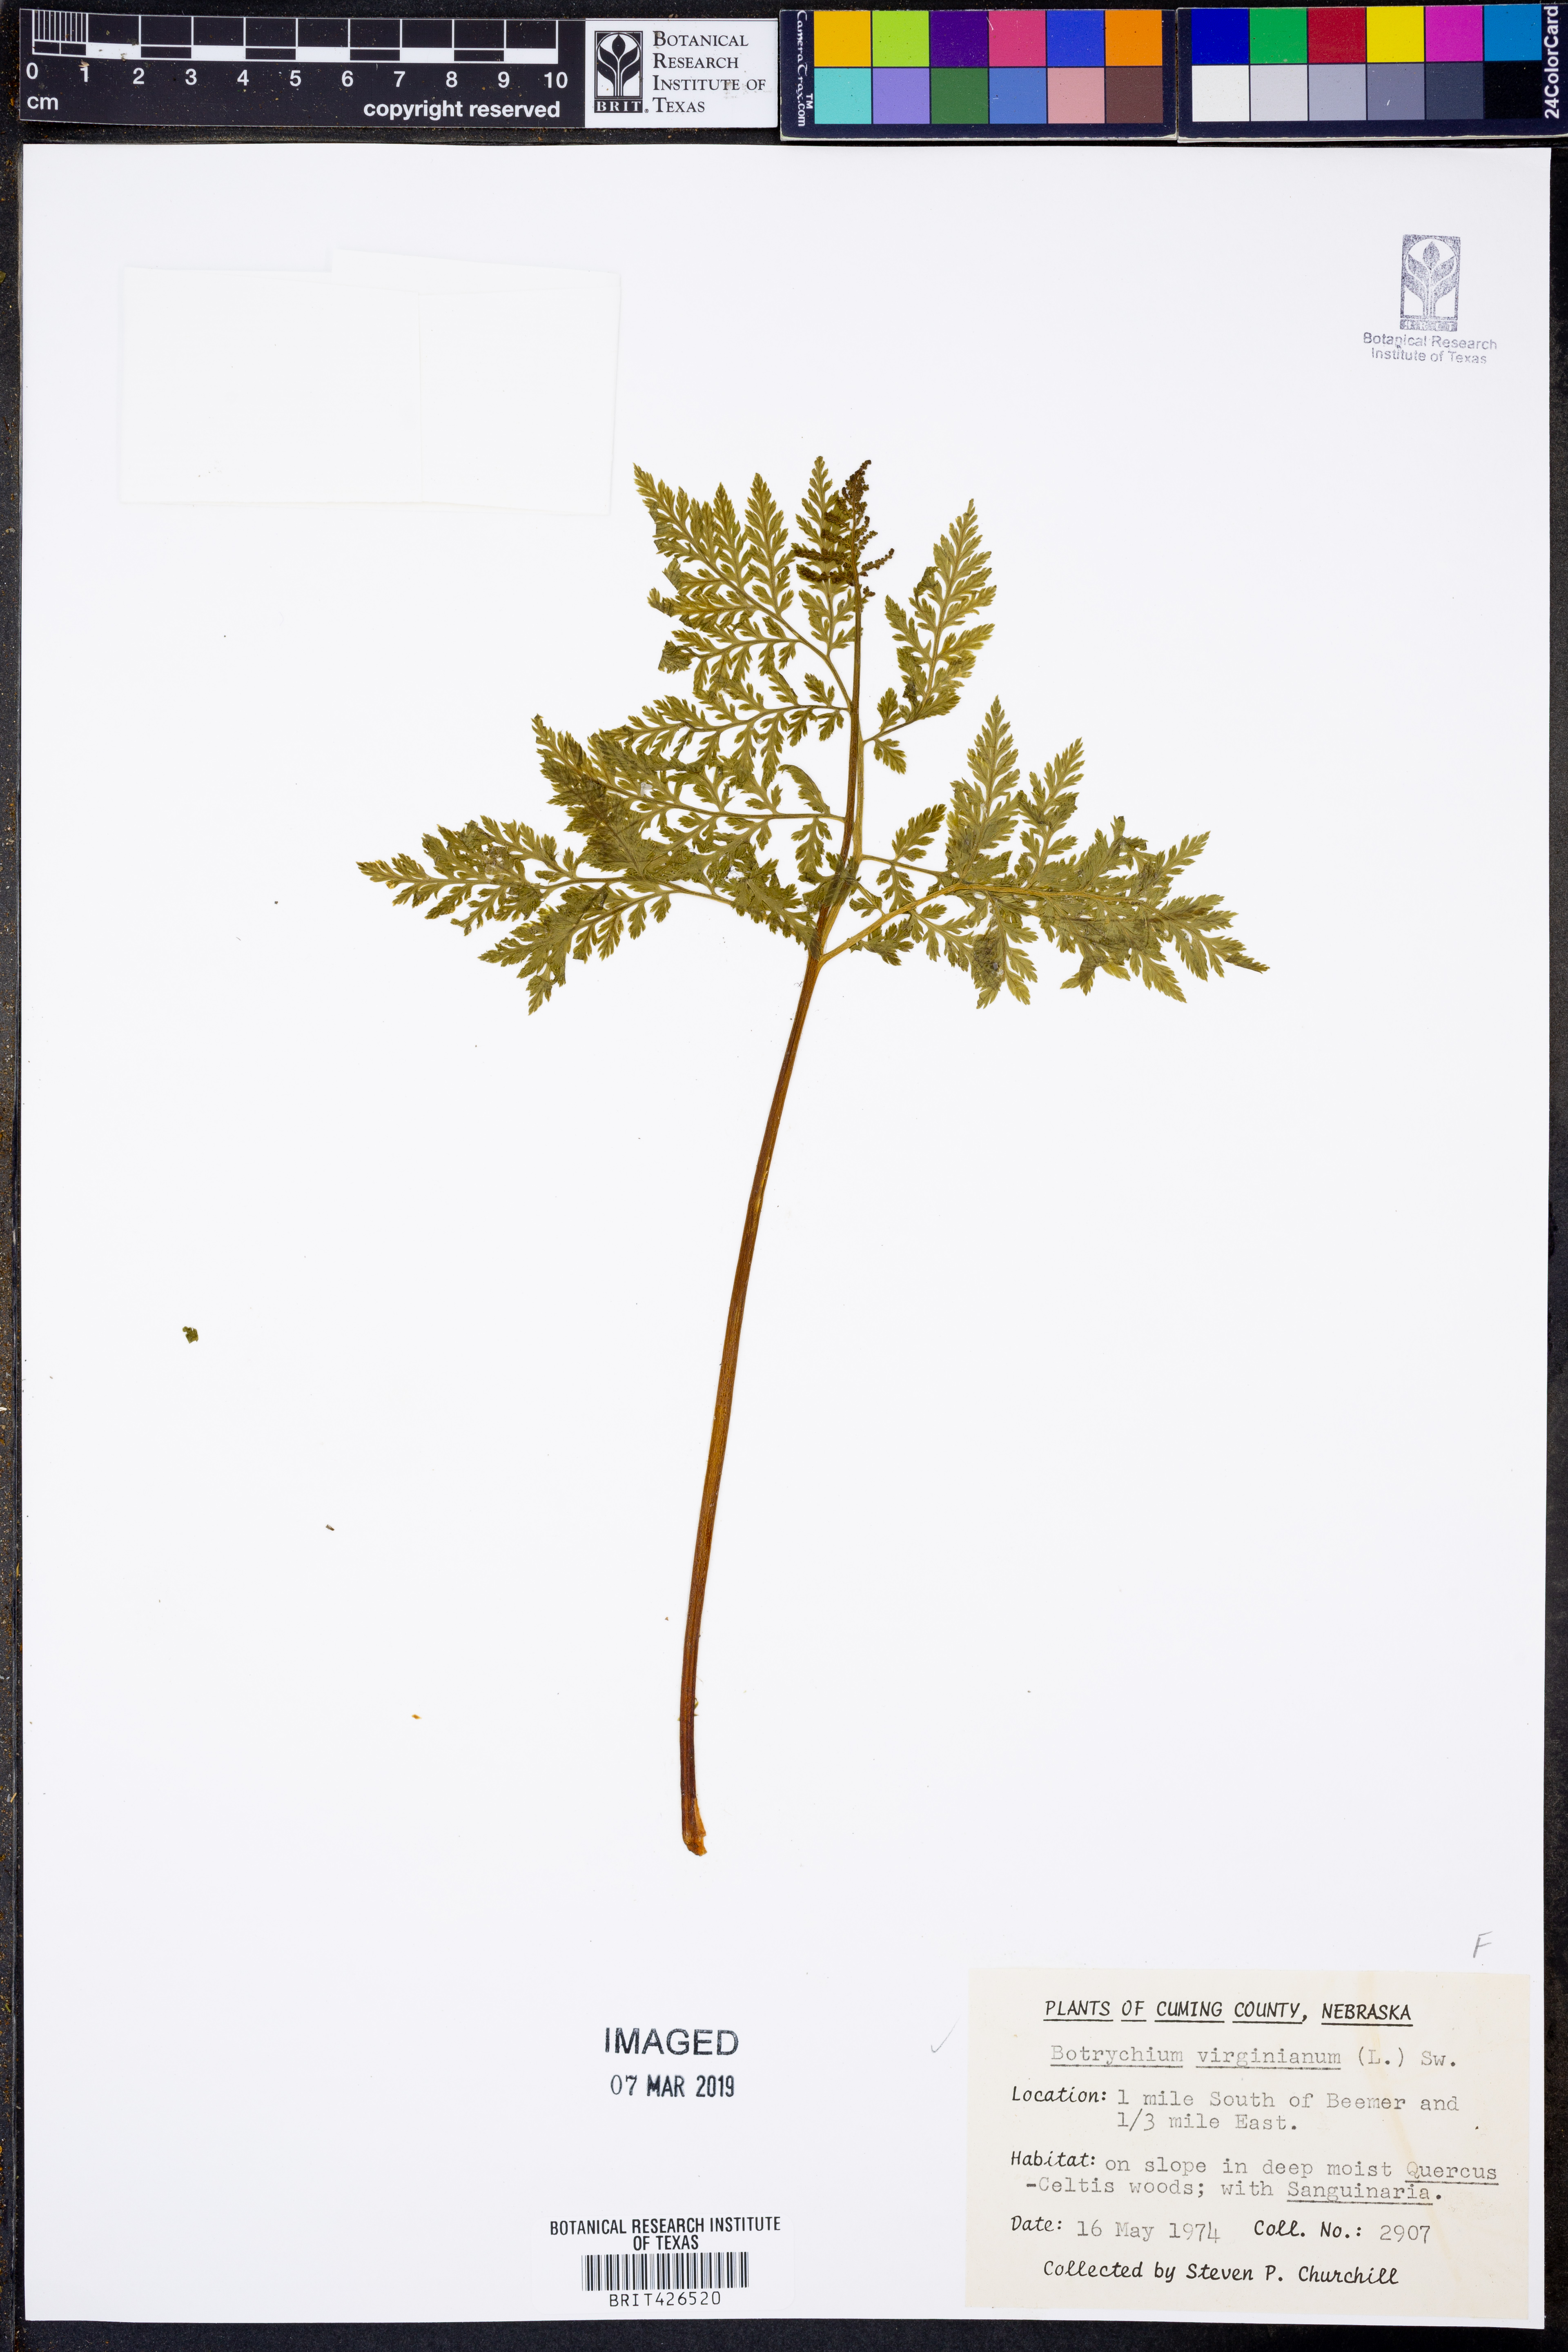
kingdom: Plantae
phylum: Tracheophyta
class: Polypodiopsida
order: Ophioglossales
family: Ophioglossaceae
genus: Botrypus
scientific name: Botrypus virginianus
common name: Common grapefern
